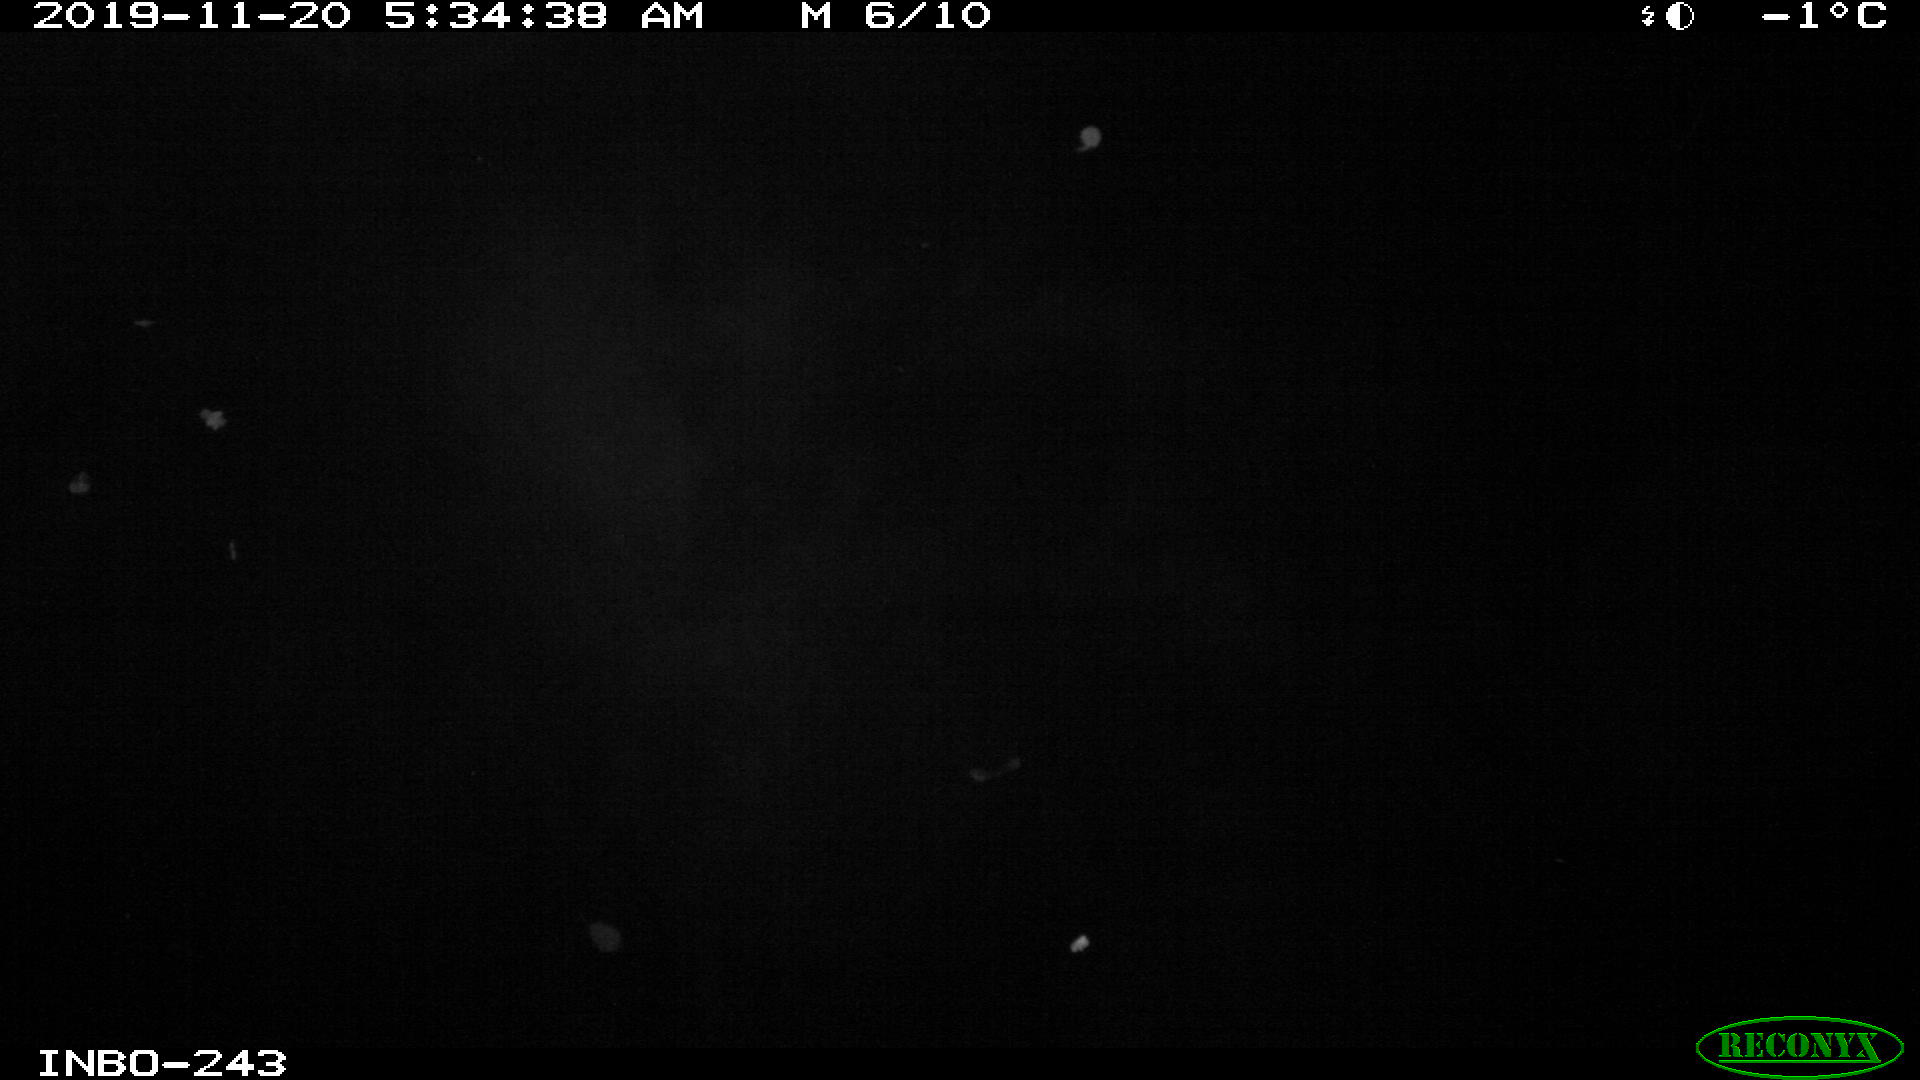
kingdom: Animalia
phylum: Chordata
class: Aves
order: Anseriformes
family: Anatidae
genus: Anas
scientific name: Anas platyrhynchos
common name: Mallard
